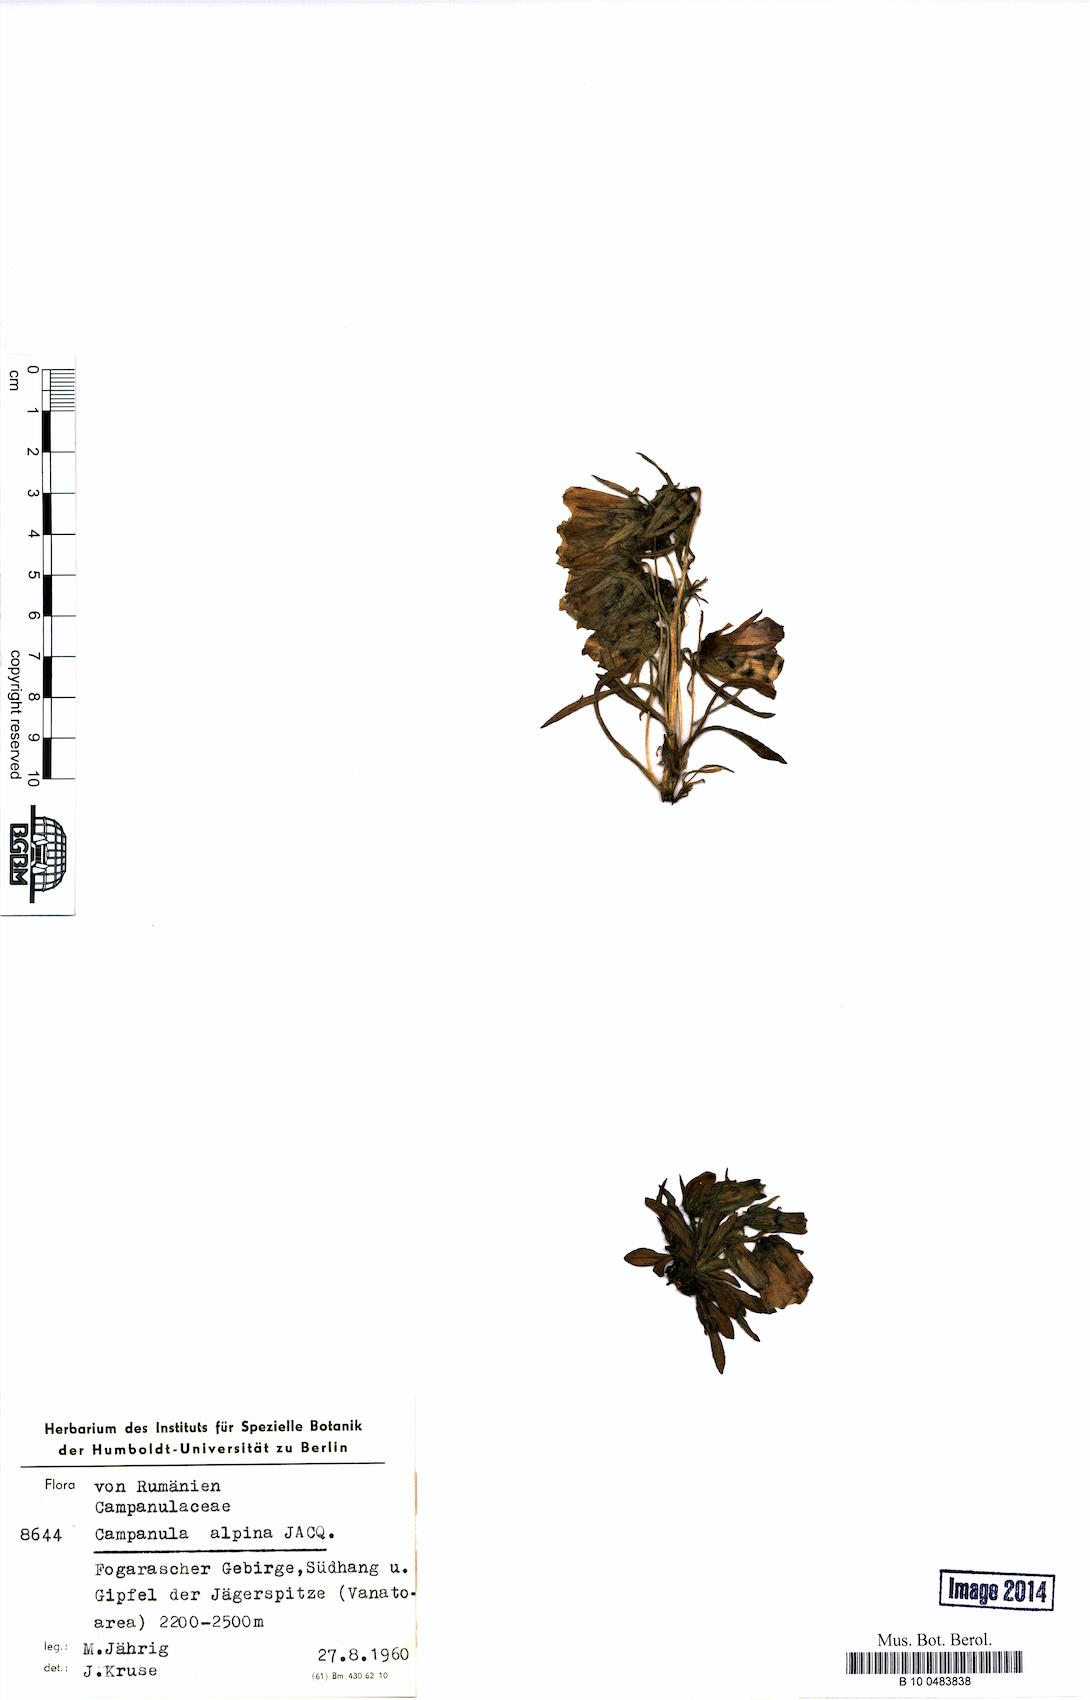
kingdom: Plantae
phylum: Tracheophyta
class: Magnoliopsida
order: Asterales
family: Campanulaceae
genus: Campanula
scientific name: Campanula alpina
